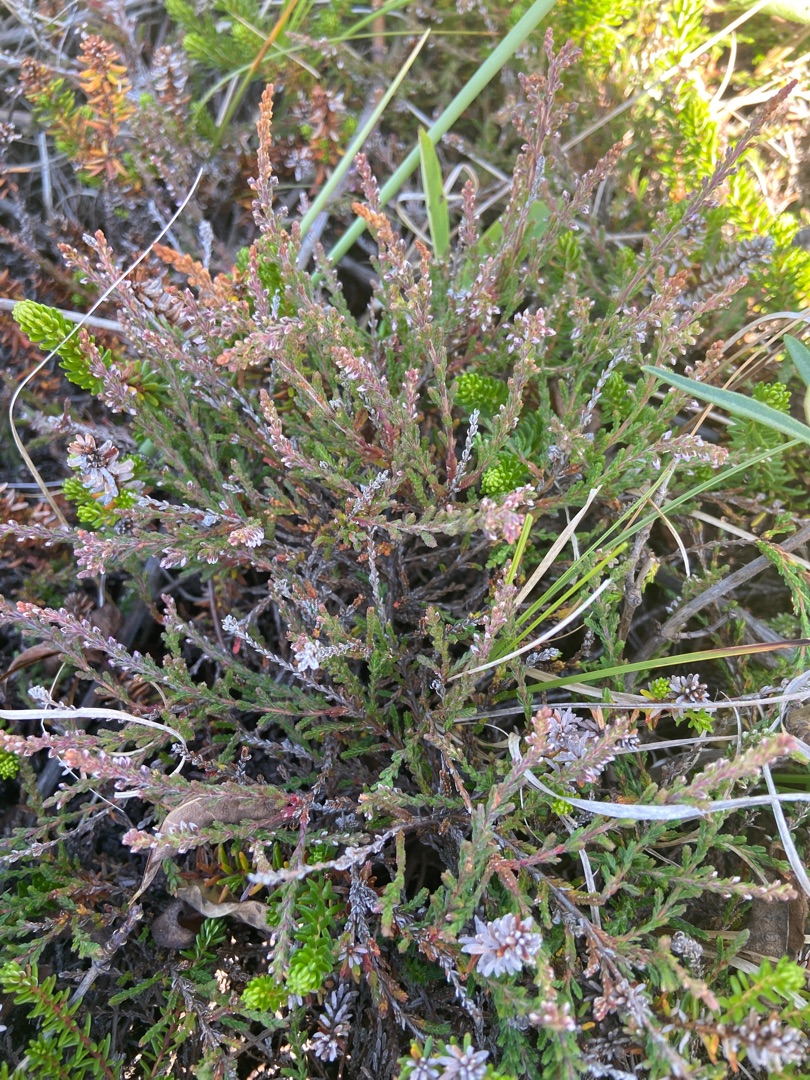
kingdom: Plantae
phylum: Tracheophyta
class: Magnoliopsida
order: Ericales
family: Ericaceae
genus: Calluna
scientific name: Calluna vulgaris
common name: Hedelyng
